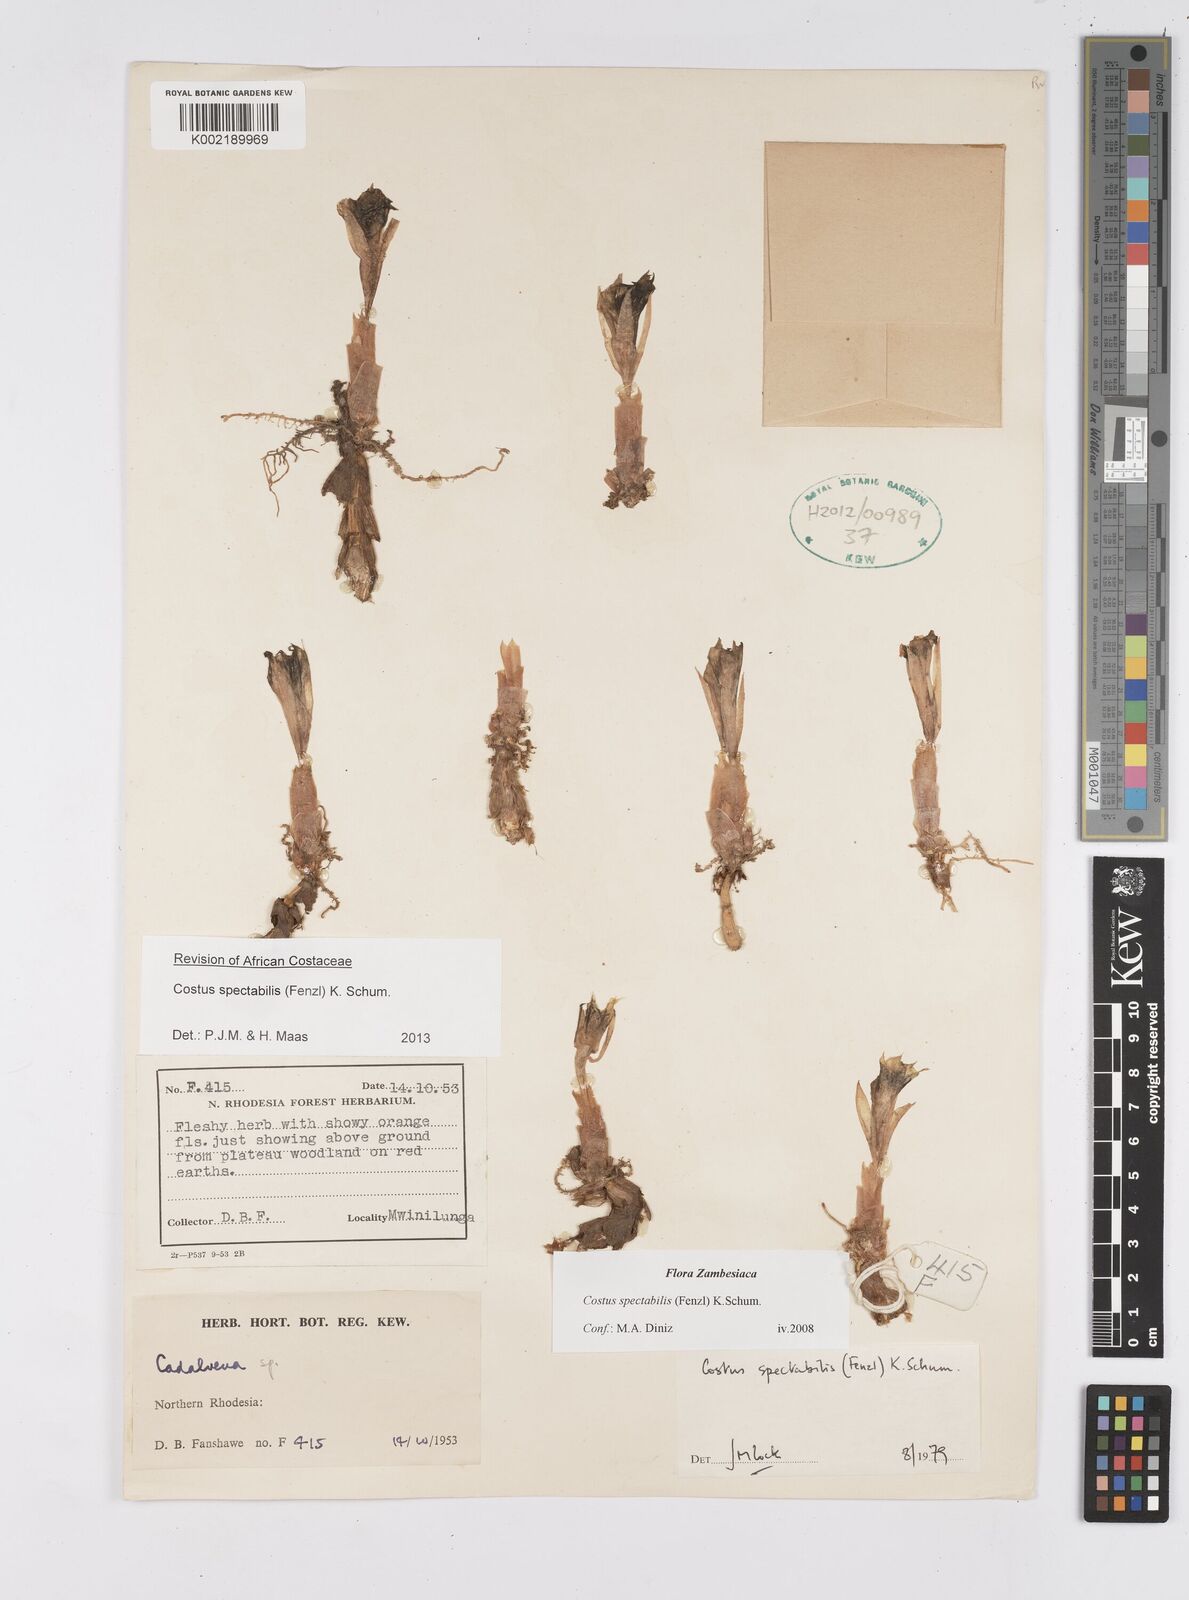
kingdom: Plantae
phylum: Tracheophyta
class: Liliopsida
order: Zingiberales
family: Costaceae
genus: Costus
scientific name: Costus spectabilis
